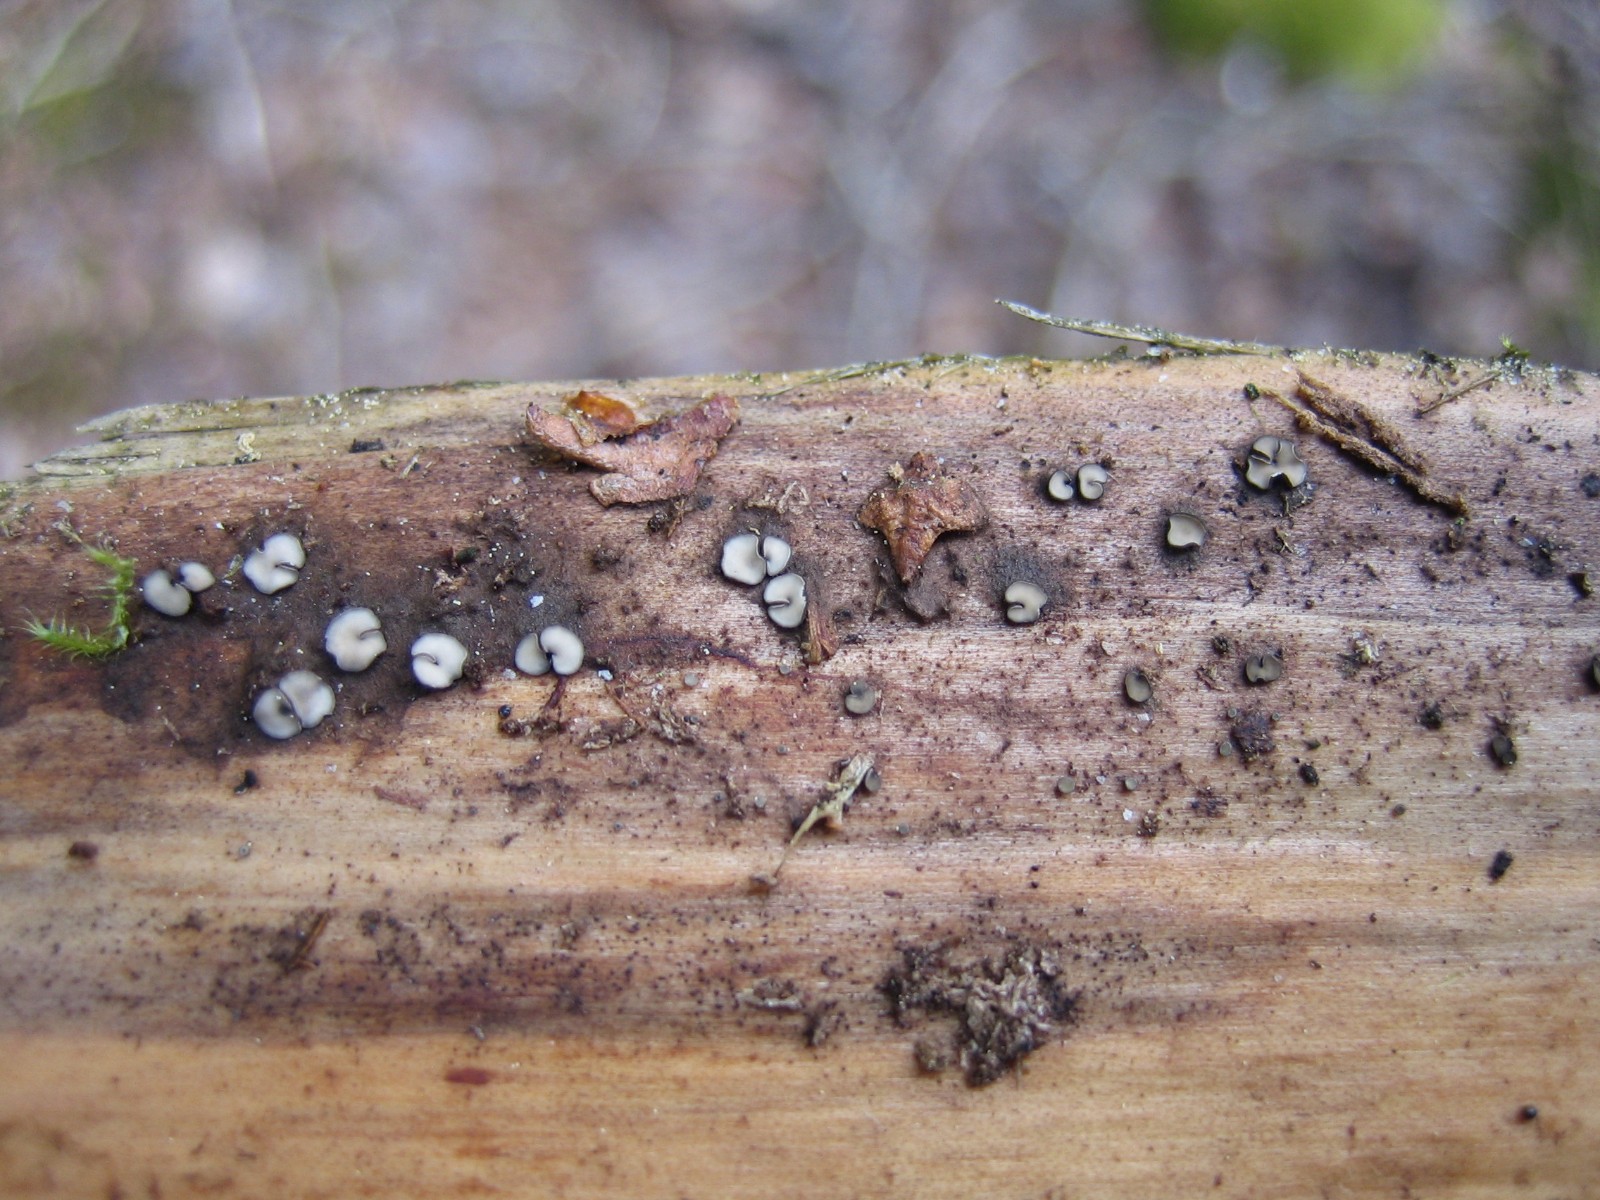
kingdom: Fungi
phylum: Ascomycota
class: Leotiomycetes
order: Helotiales
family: Dermateaceae
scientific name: Dermateaceae
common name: gråskivefamilien
